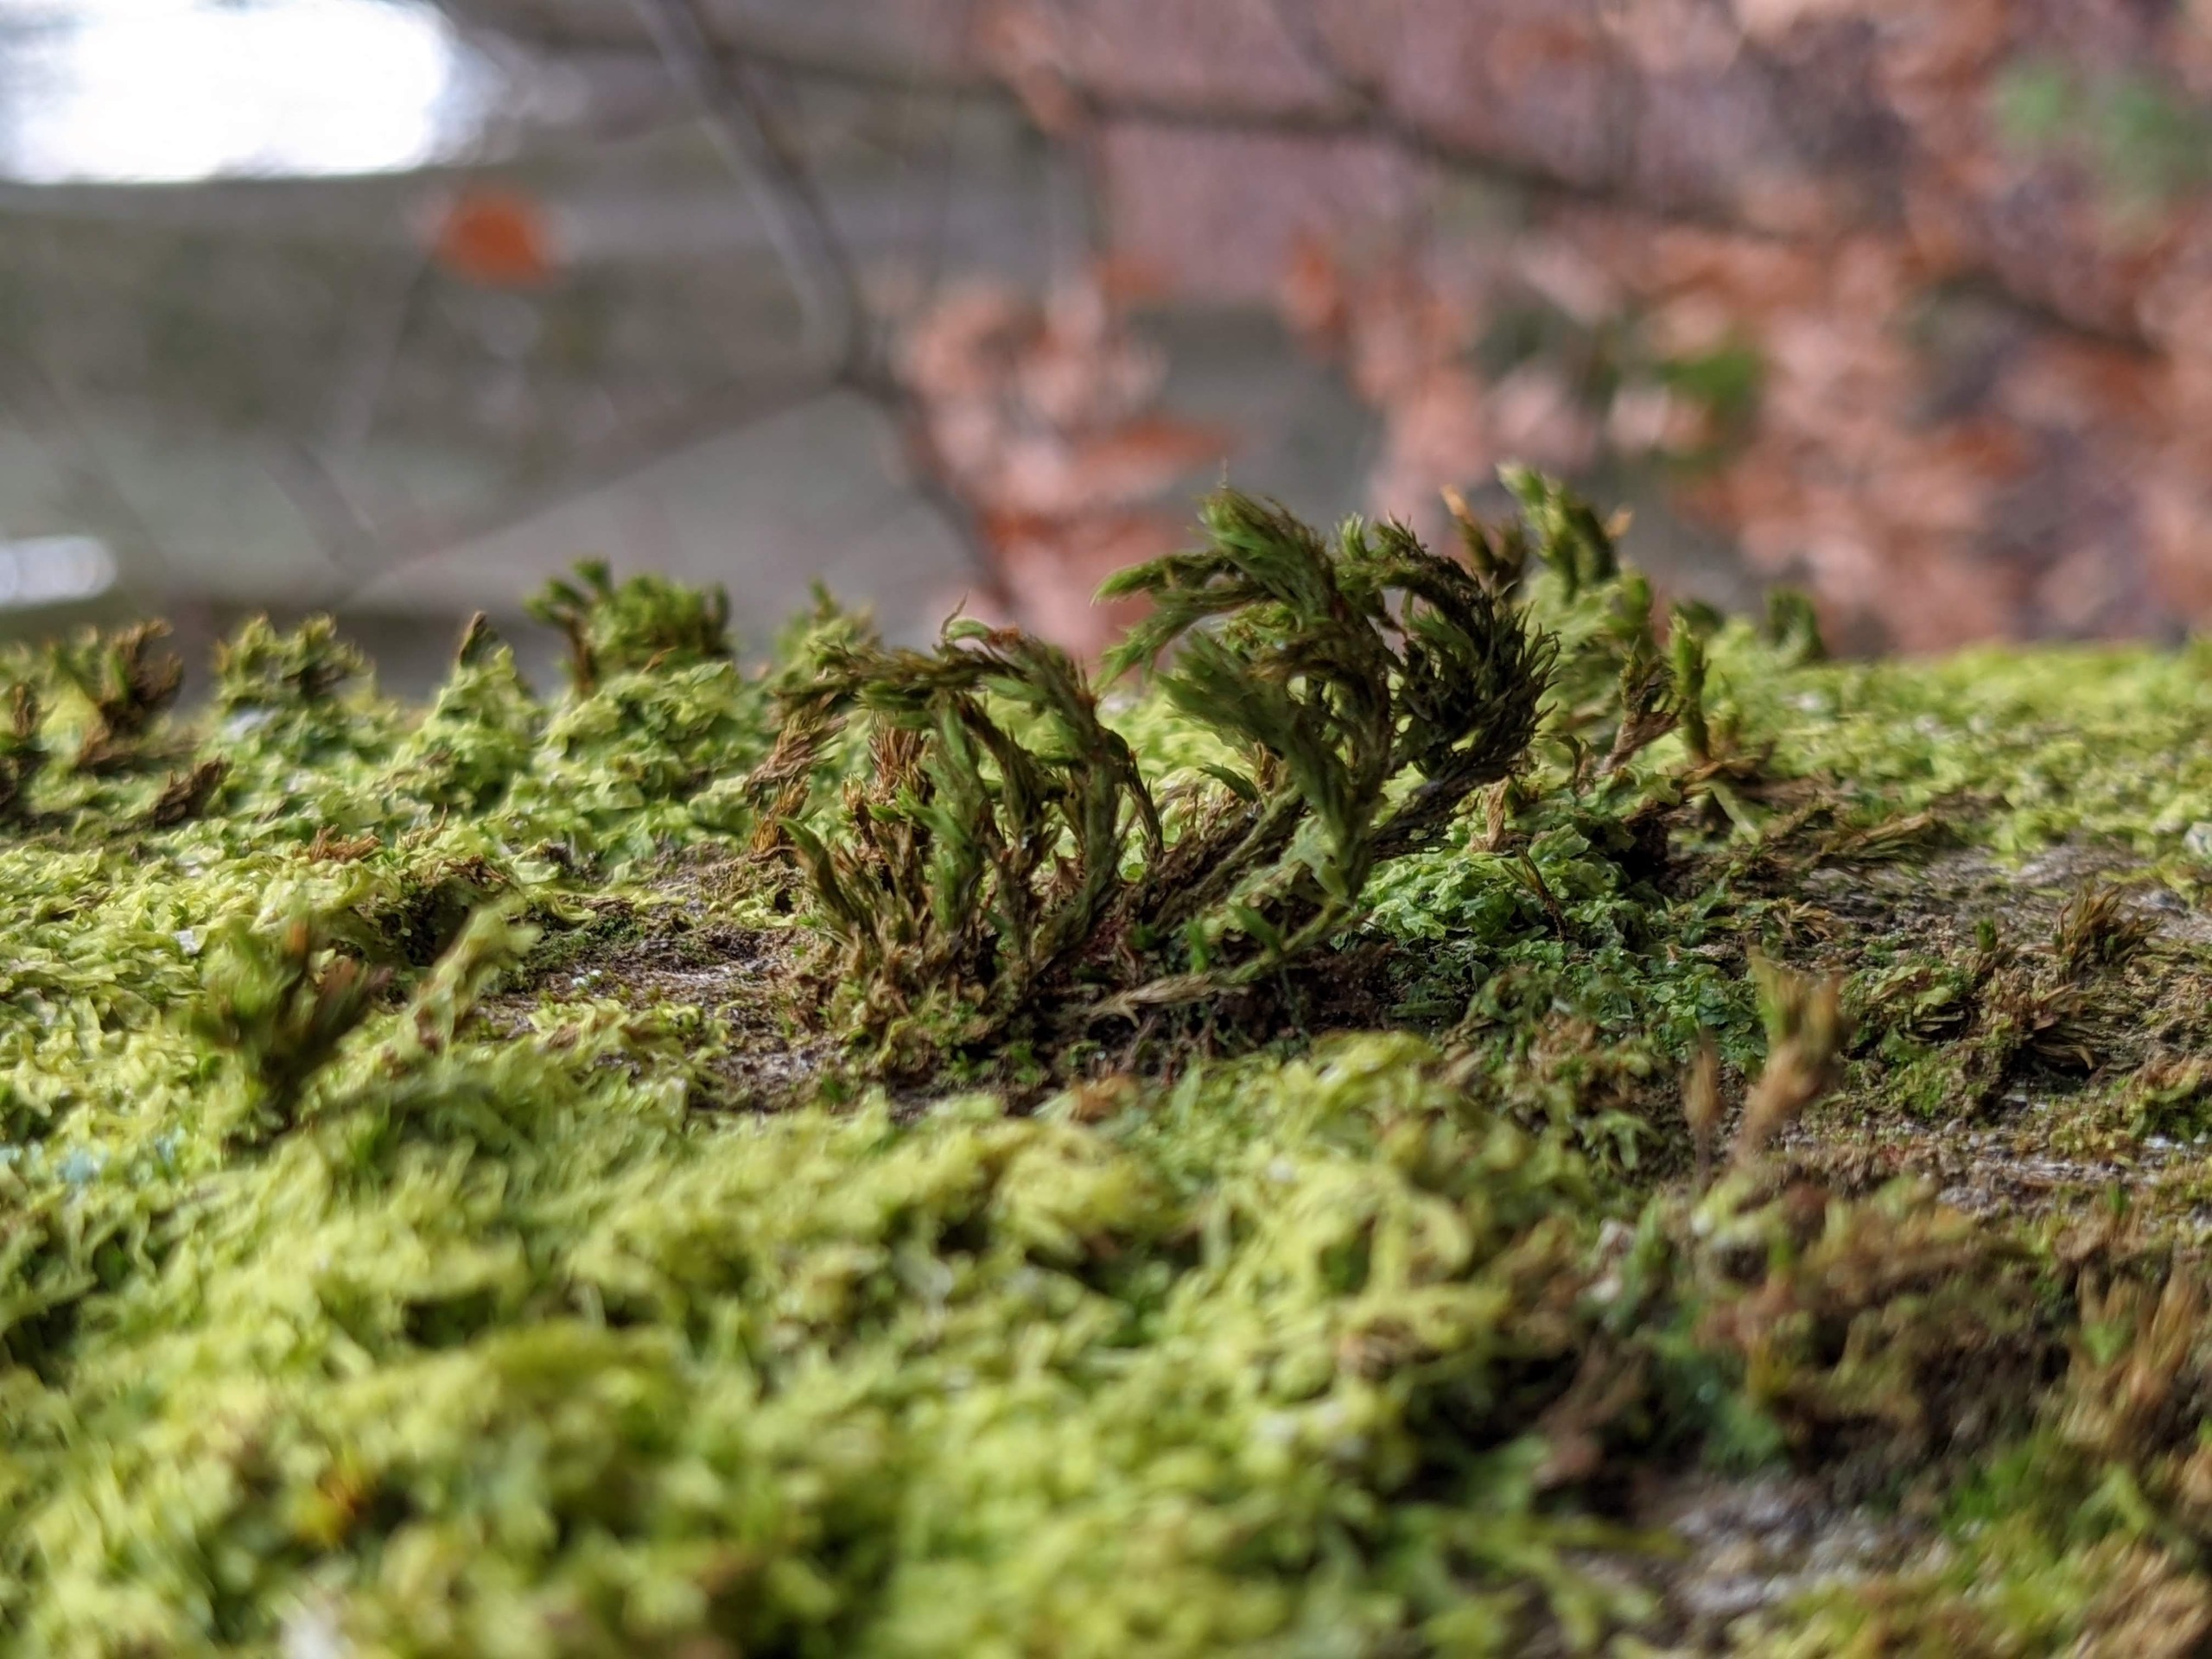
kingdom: Plantae
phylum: Bryophyta
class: Bryopsida
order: Orthotrichales
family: Orthotrichaceae
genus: Pulvigera
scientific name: Pulvigera lyellii
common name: Stor furehætte
